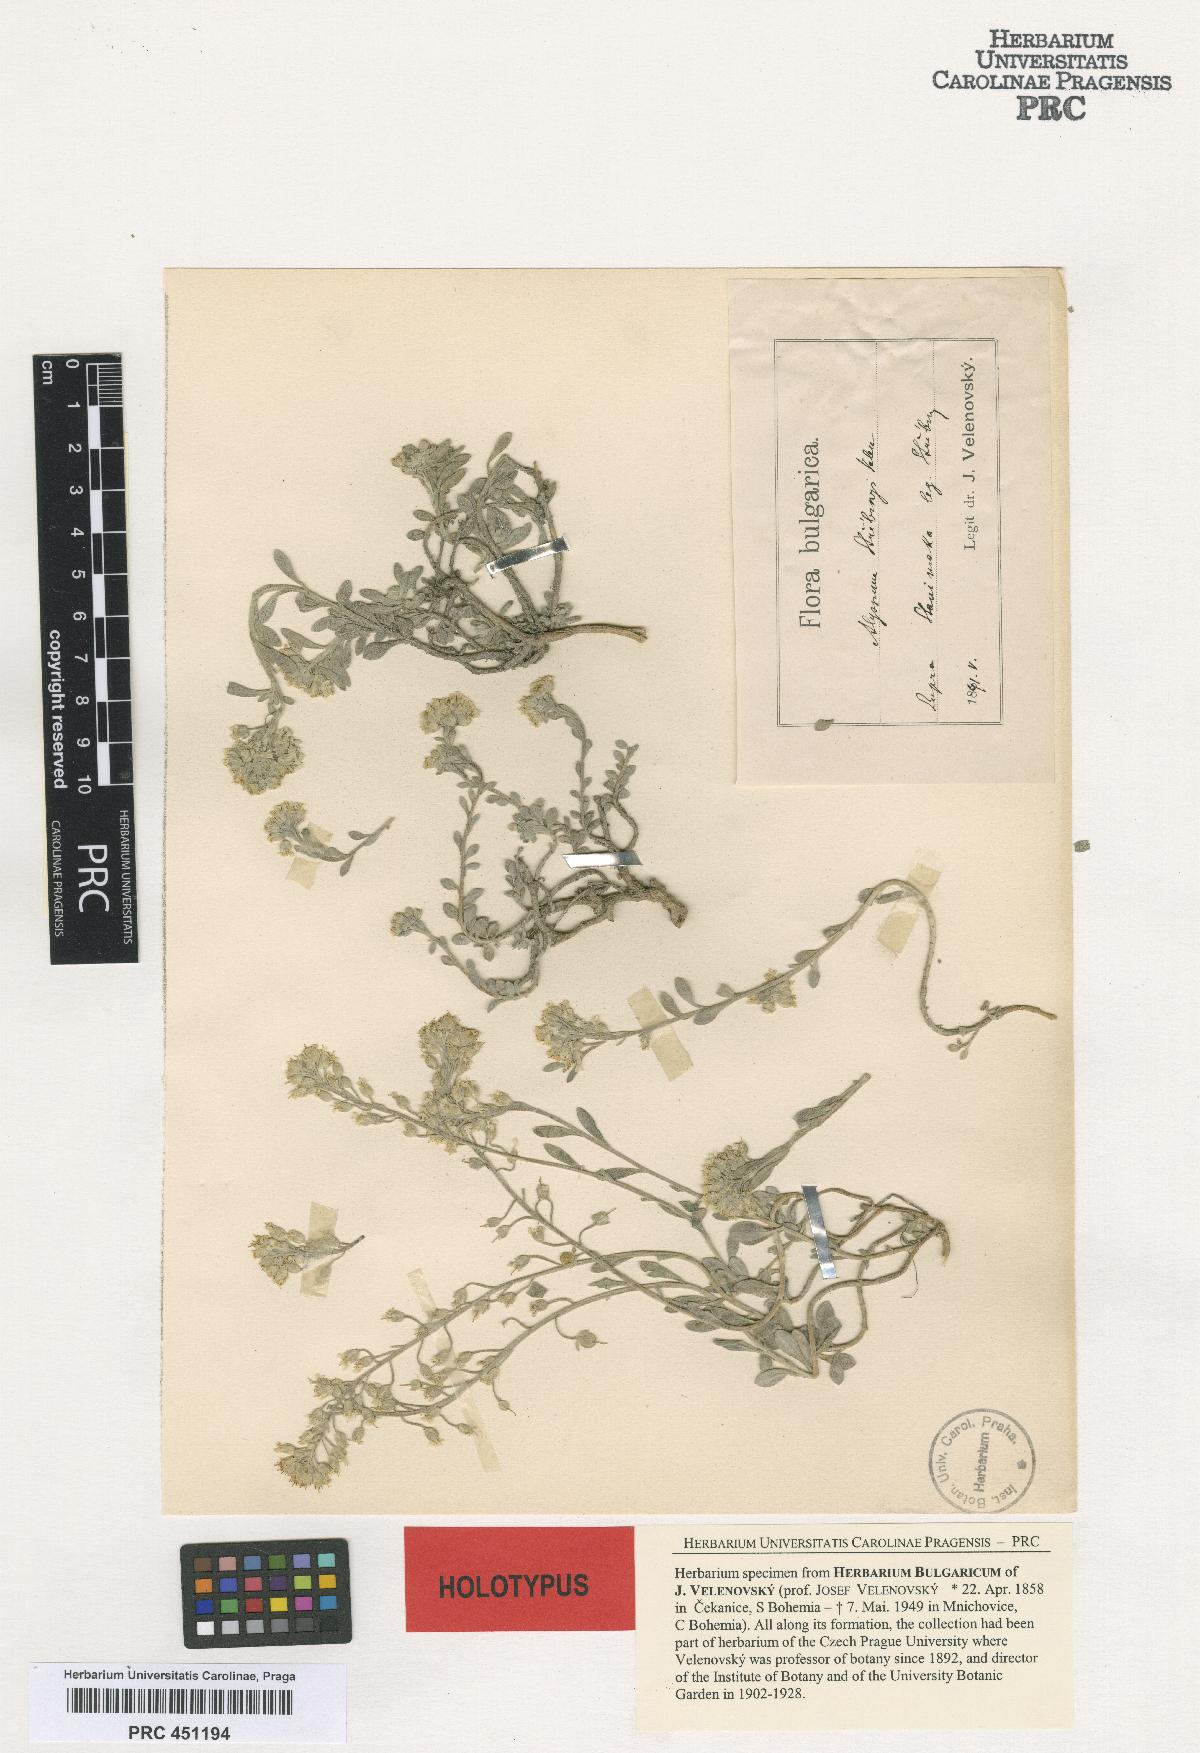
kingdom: Plantae
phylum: Tracheophyta
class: Magnoliopsida
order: Brassicales
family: Brassicaceae
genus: Alyssum
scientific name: Alyssum montanum
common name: Mountain alison
